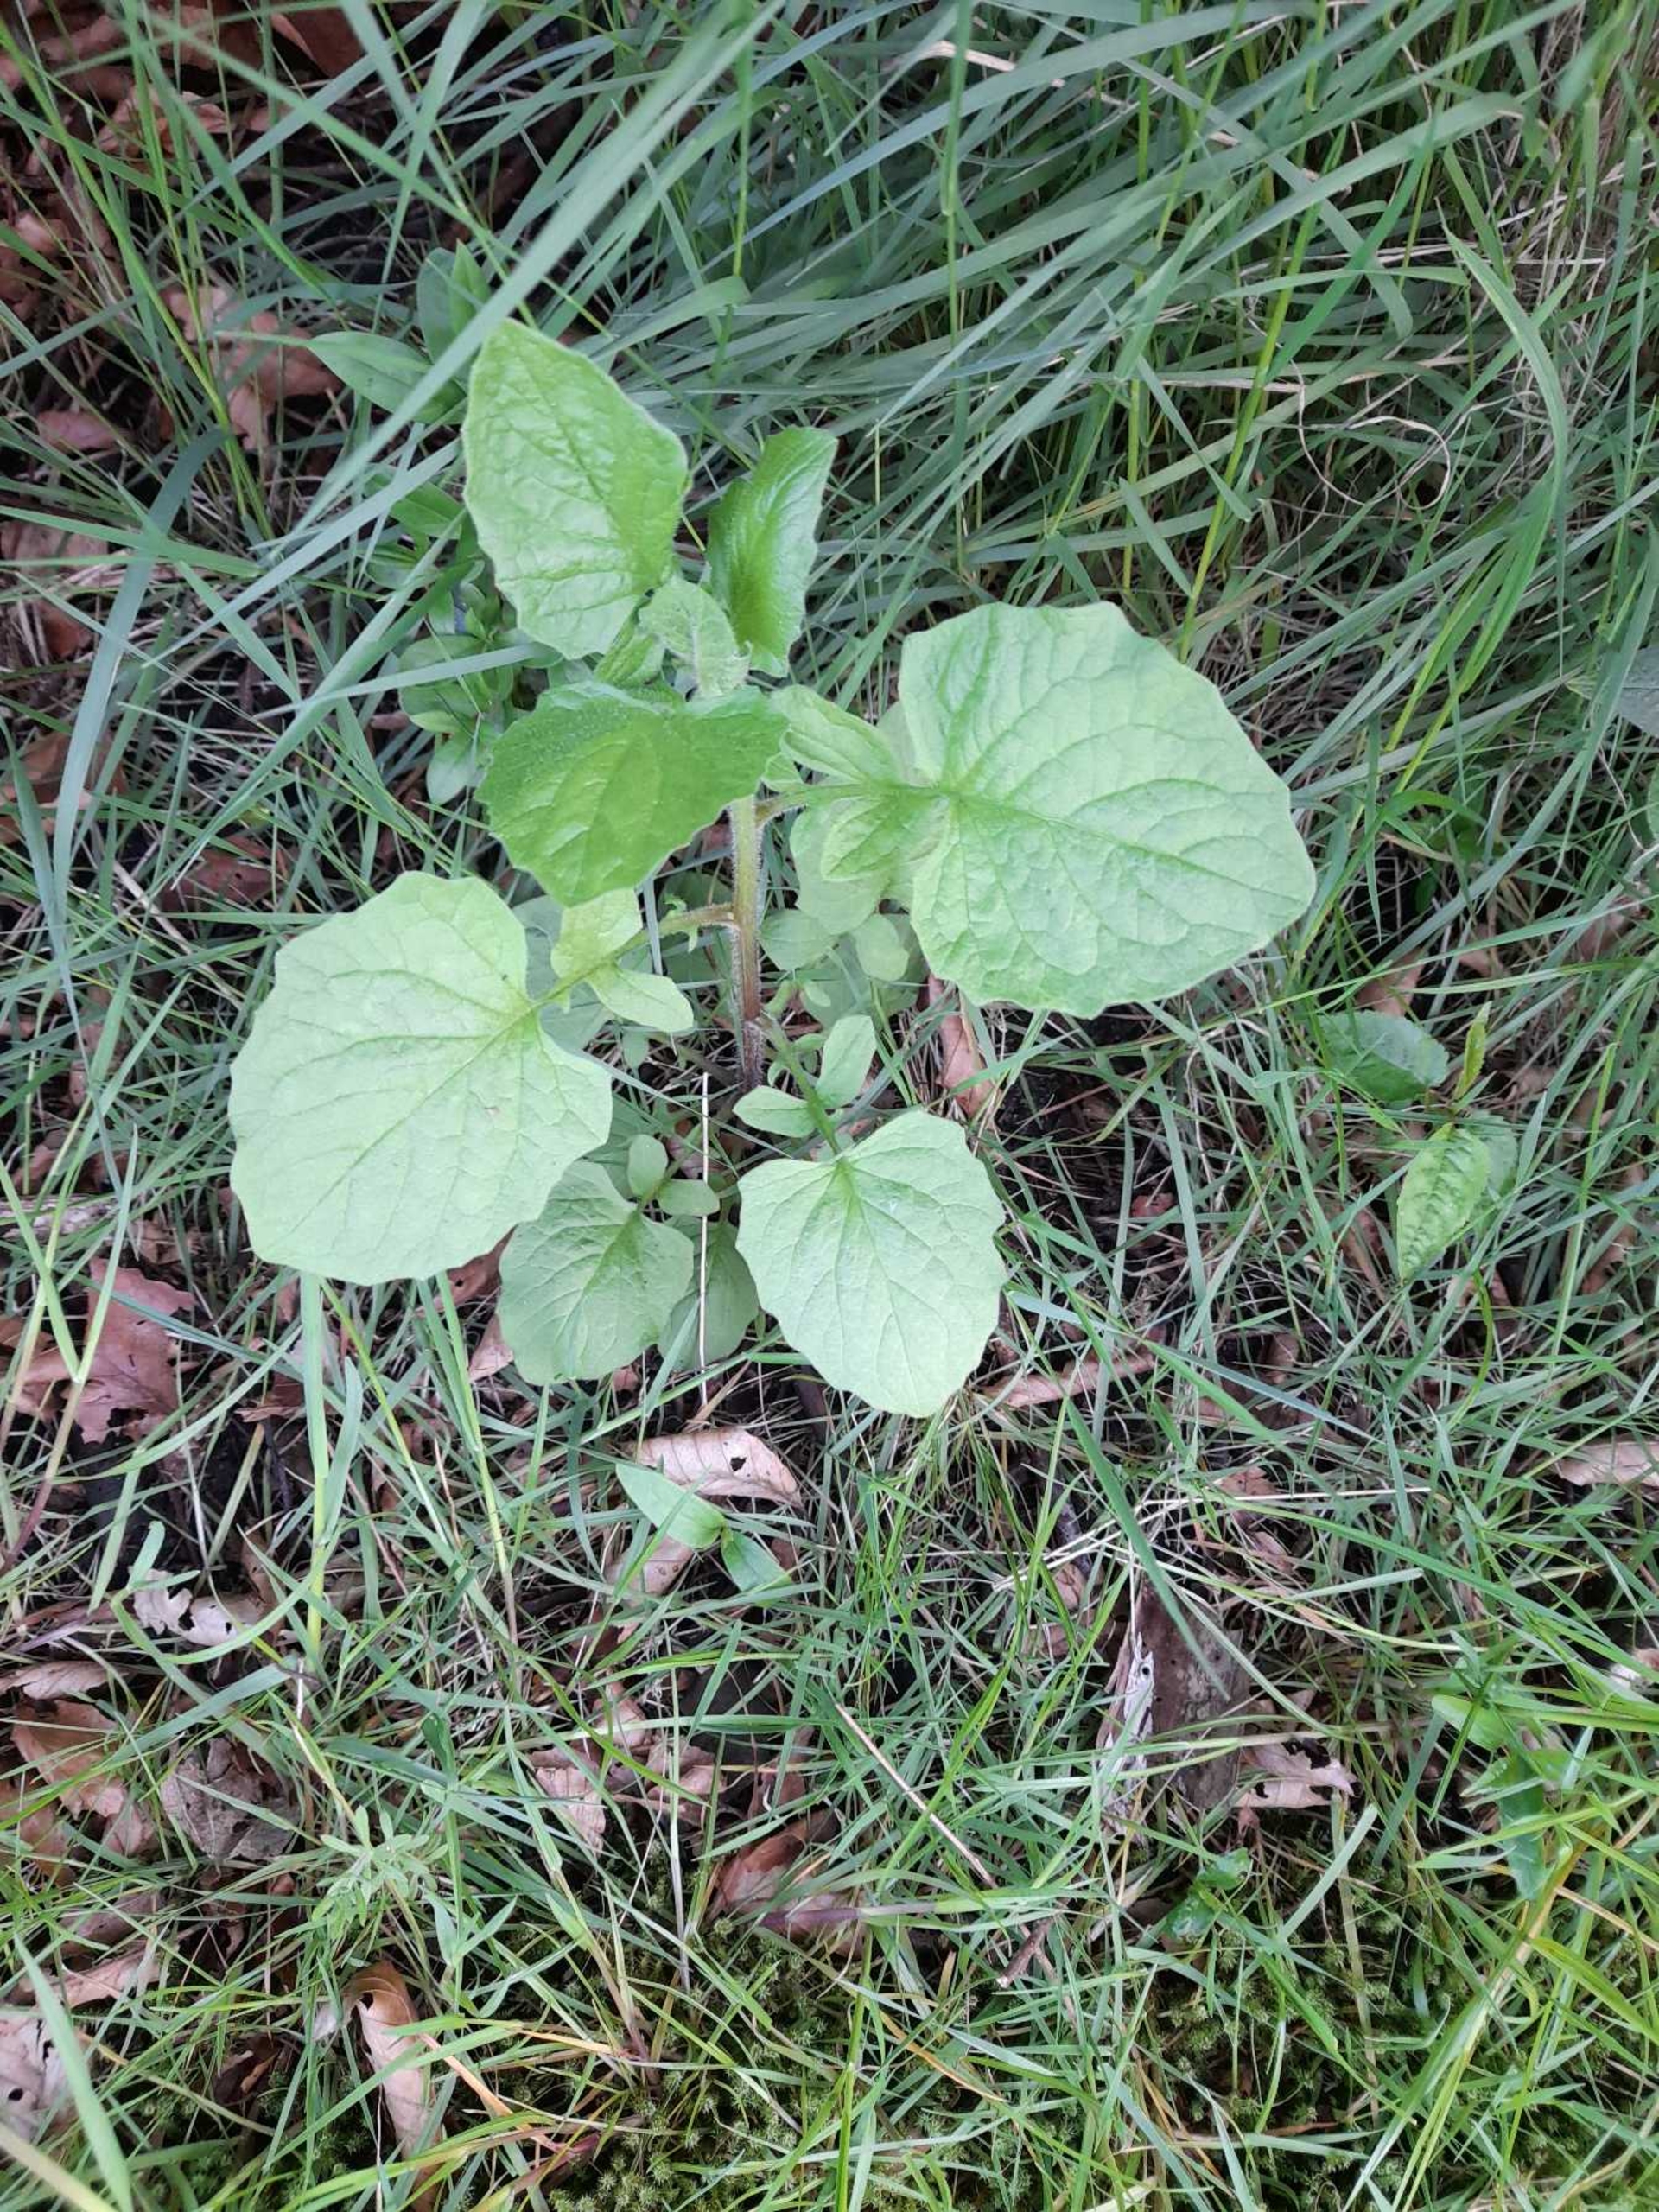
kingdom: Plantae
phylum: Tracheophyta
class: Magnoliopsida
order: Asterales
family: Asteraceae
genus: Lapsana
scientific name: Lapsana communis
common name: Haremad
